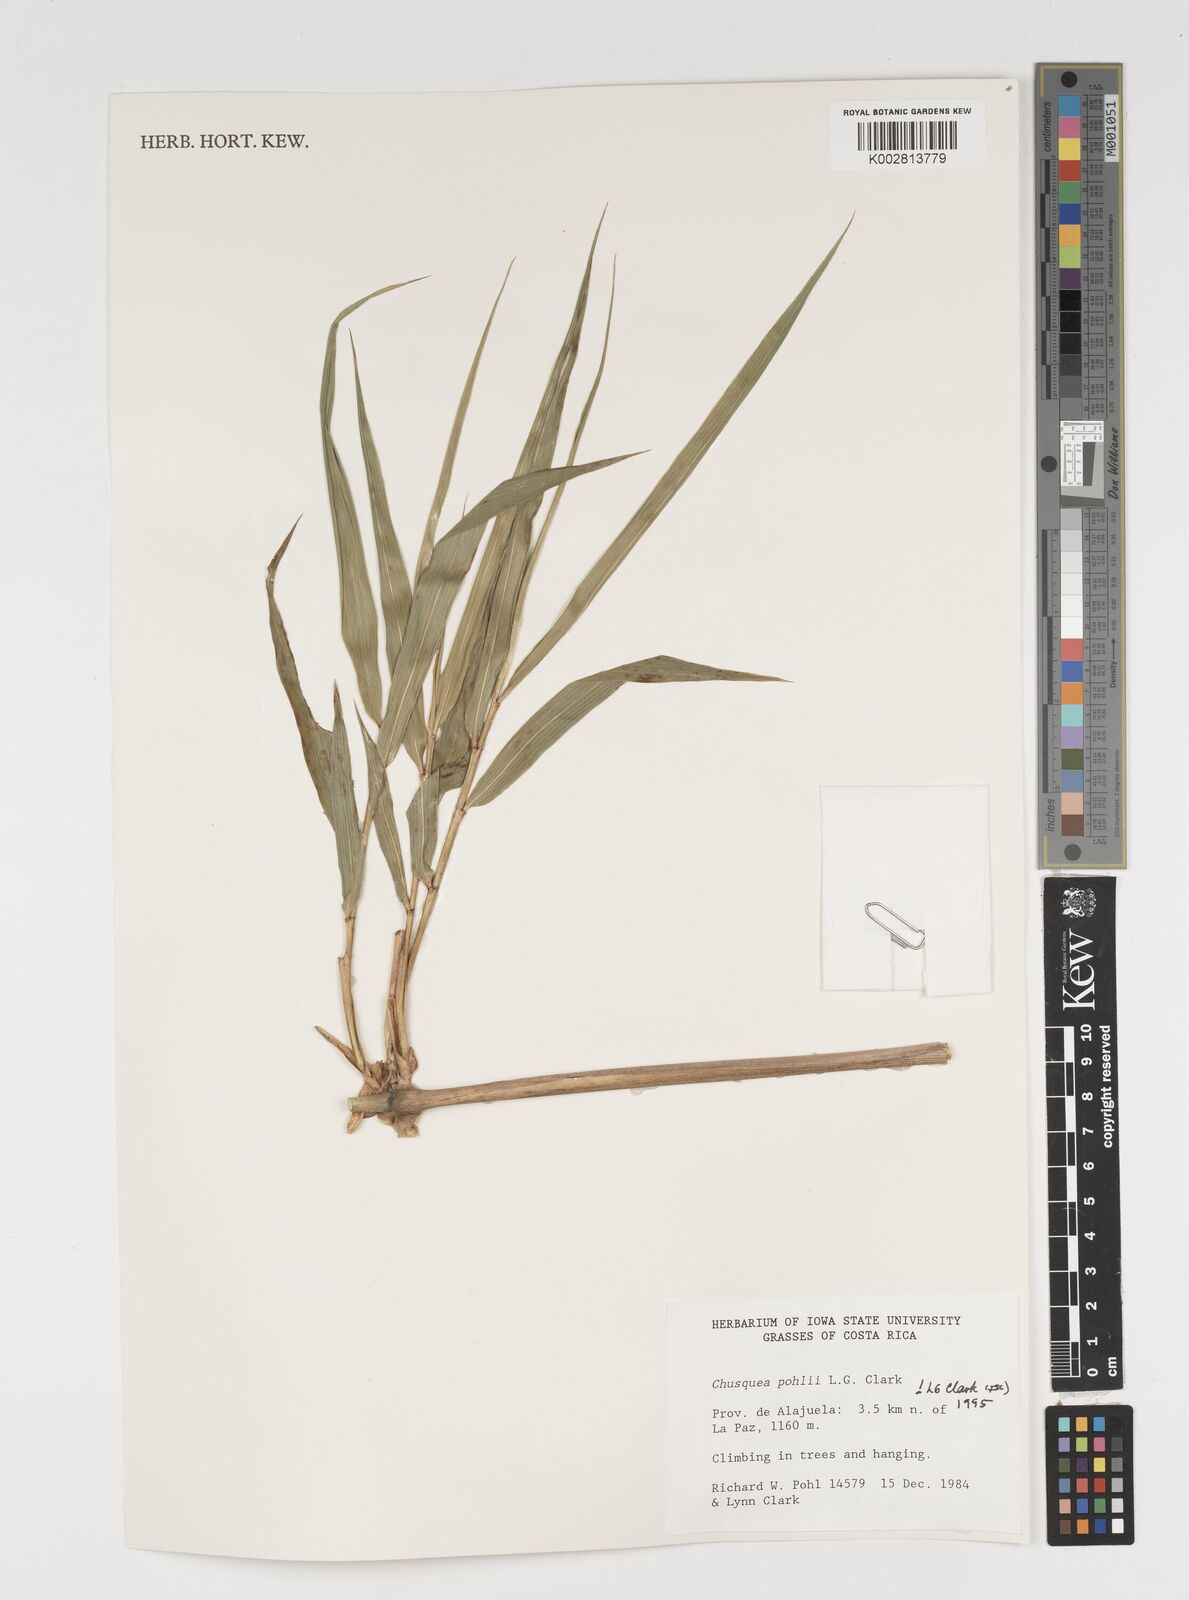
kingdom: Plantae
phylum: Tracheophyta
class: Liliopsida
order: Poales
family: Poaceae
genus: Chusquea
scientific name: Chusquea pohlii
